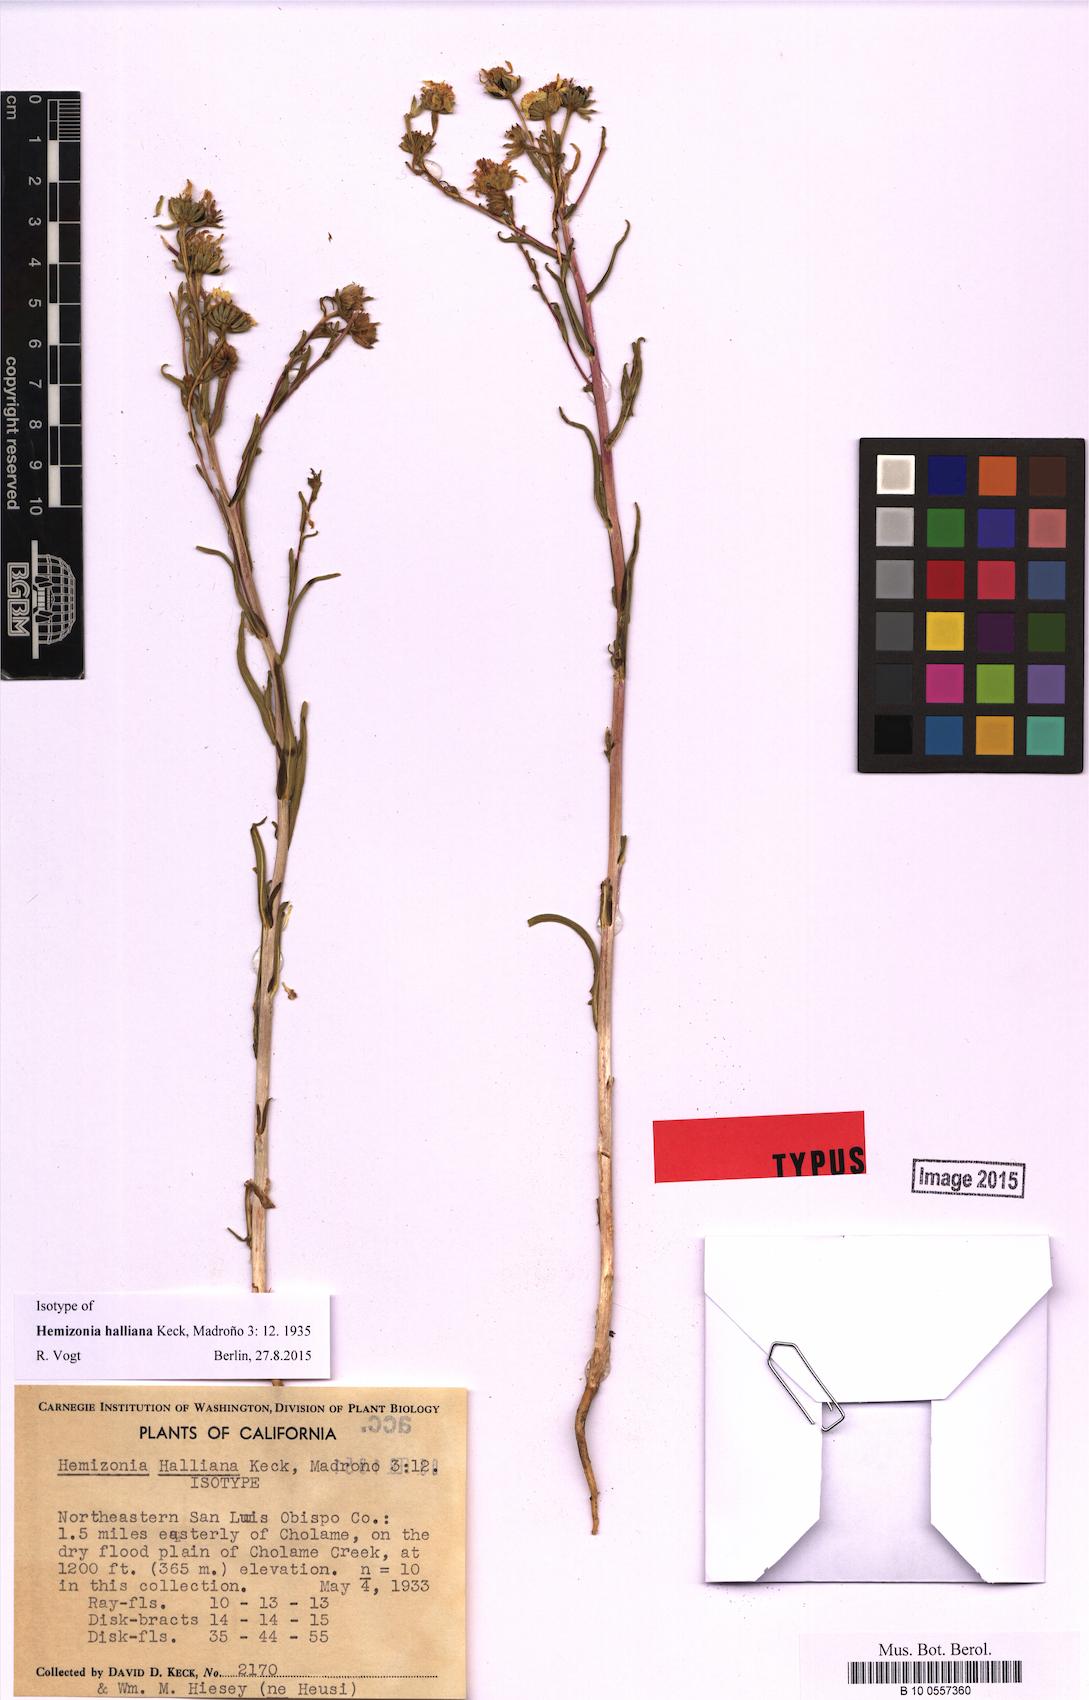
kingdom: Plantae
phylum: Tracheophyta
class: Magnoliopsida
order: Asterales
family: Asteraceae
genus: Deinandra
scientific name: Deinandra halliana
